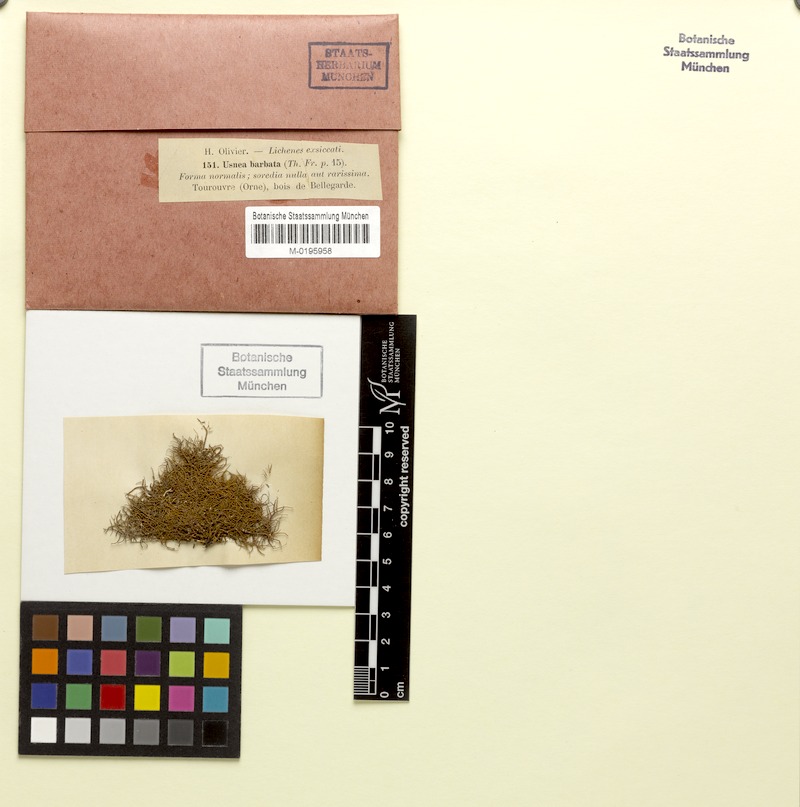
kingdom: Fungi
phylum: Ascomycota
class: Lecanoromycetes
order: Lecanorales
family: Parmeliaceae
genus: Usnea
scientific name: Usnea barbata
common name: Old man's beard lichen
